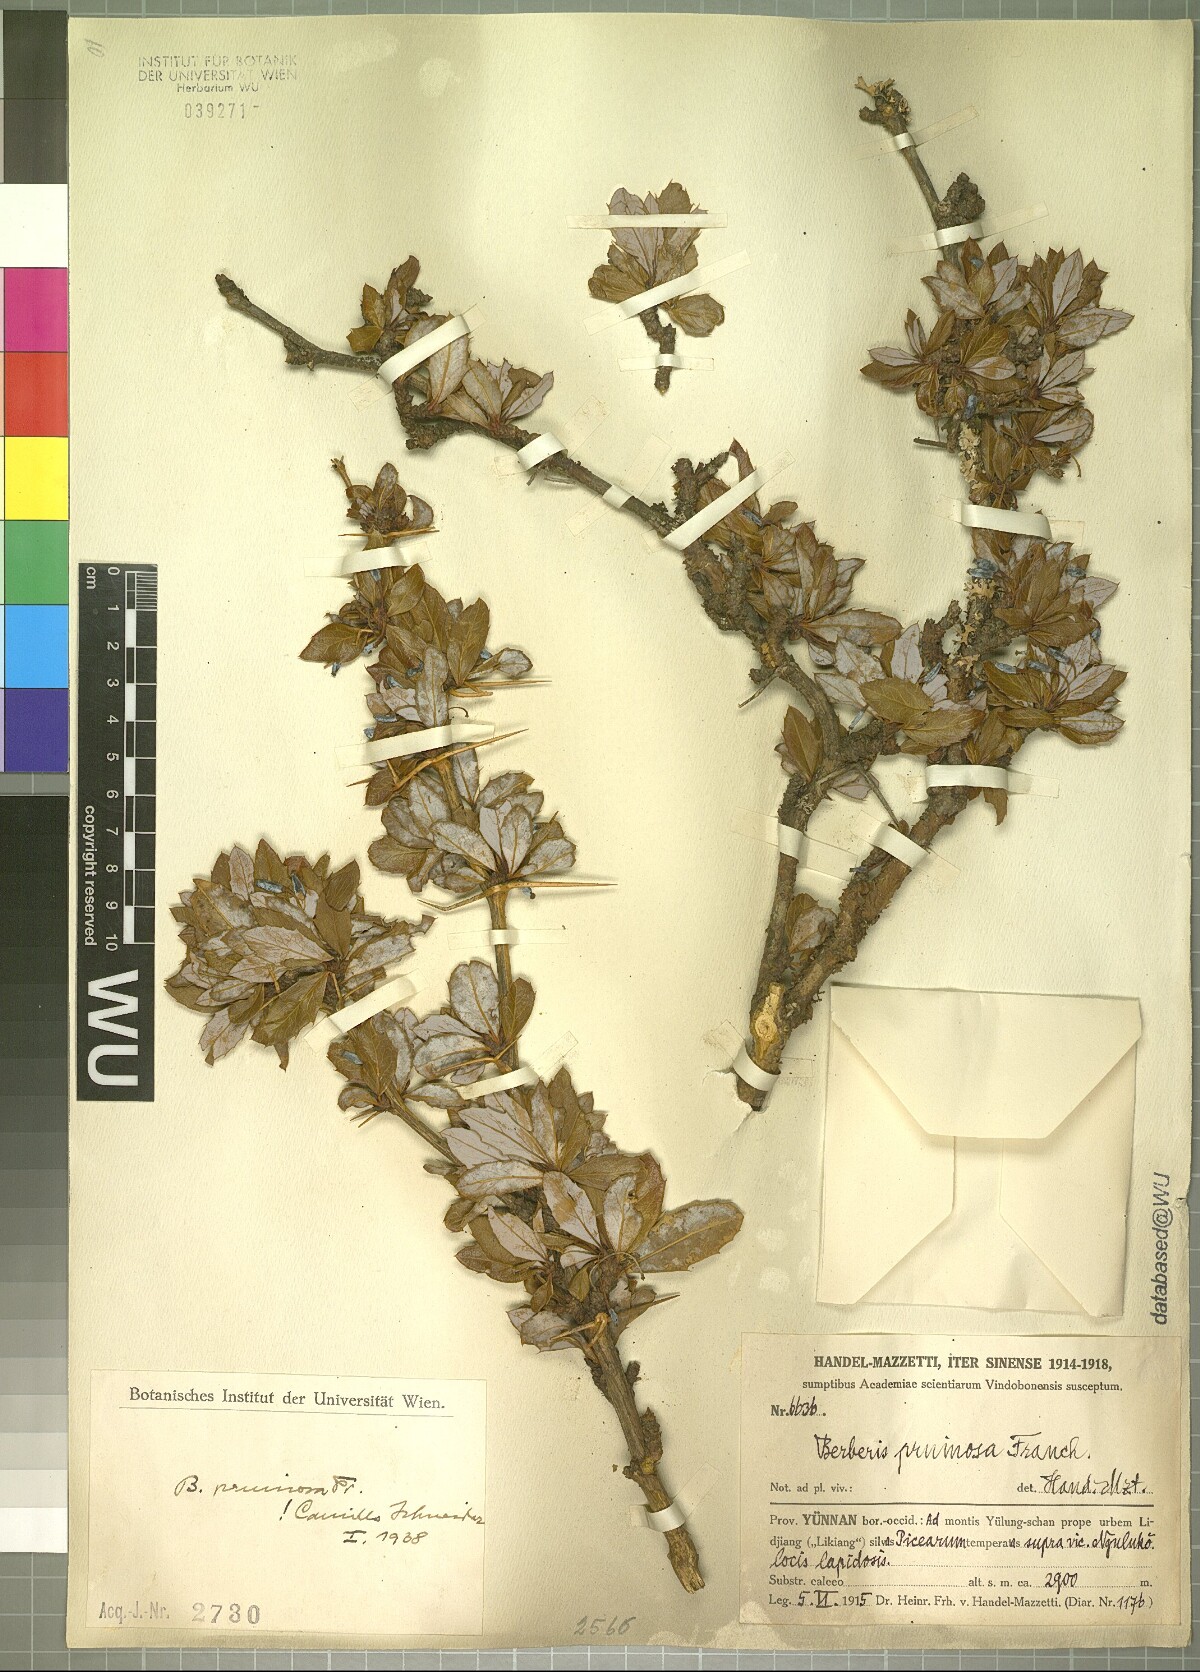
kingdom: Plantae
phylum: Tracheophyta
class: Magnoliopsida
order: Ranunculales
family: Berberidaceae
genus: Berberis
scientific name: Berberis pruinosa
